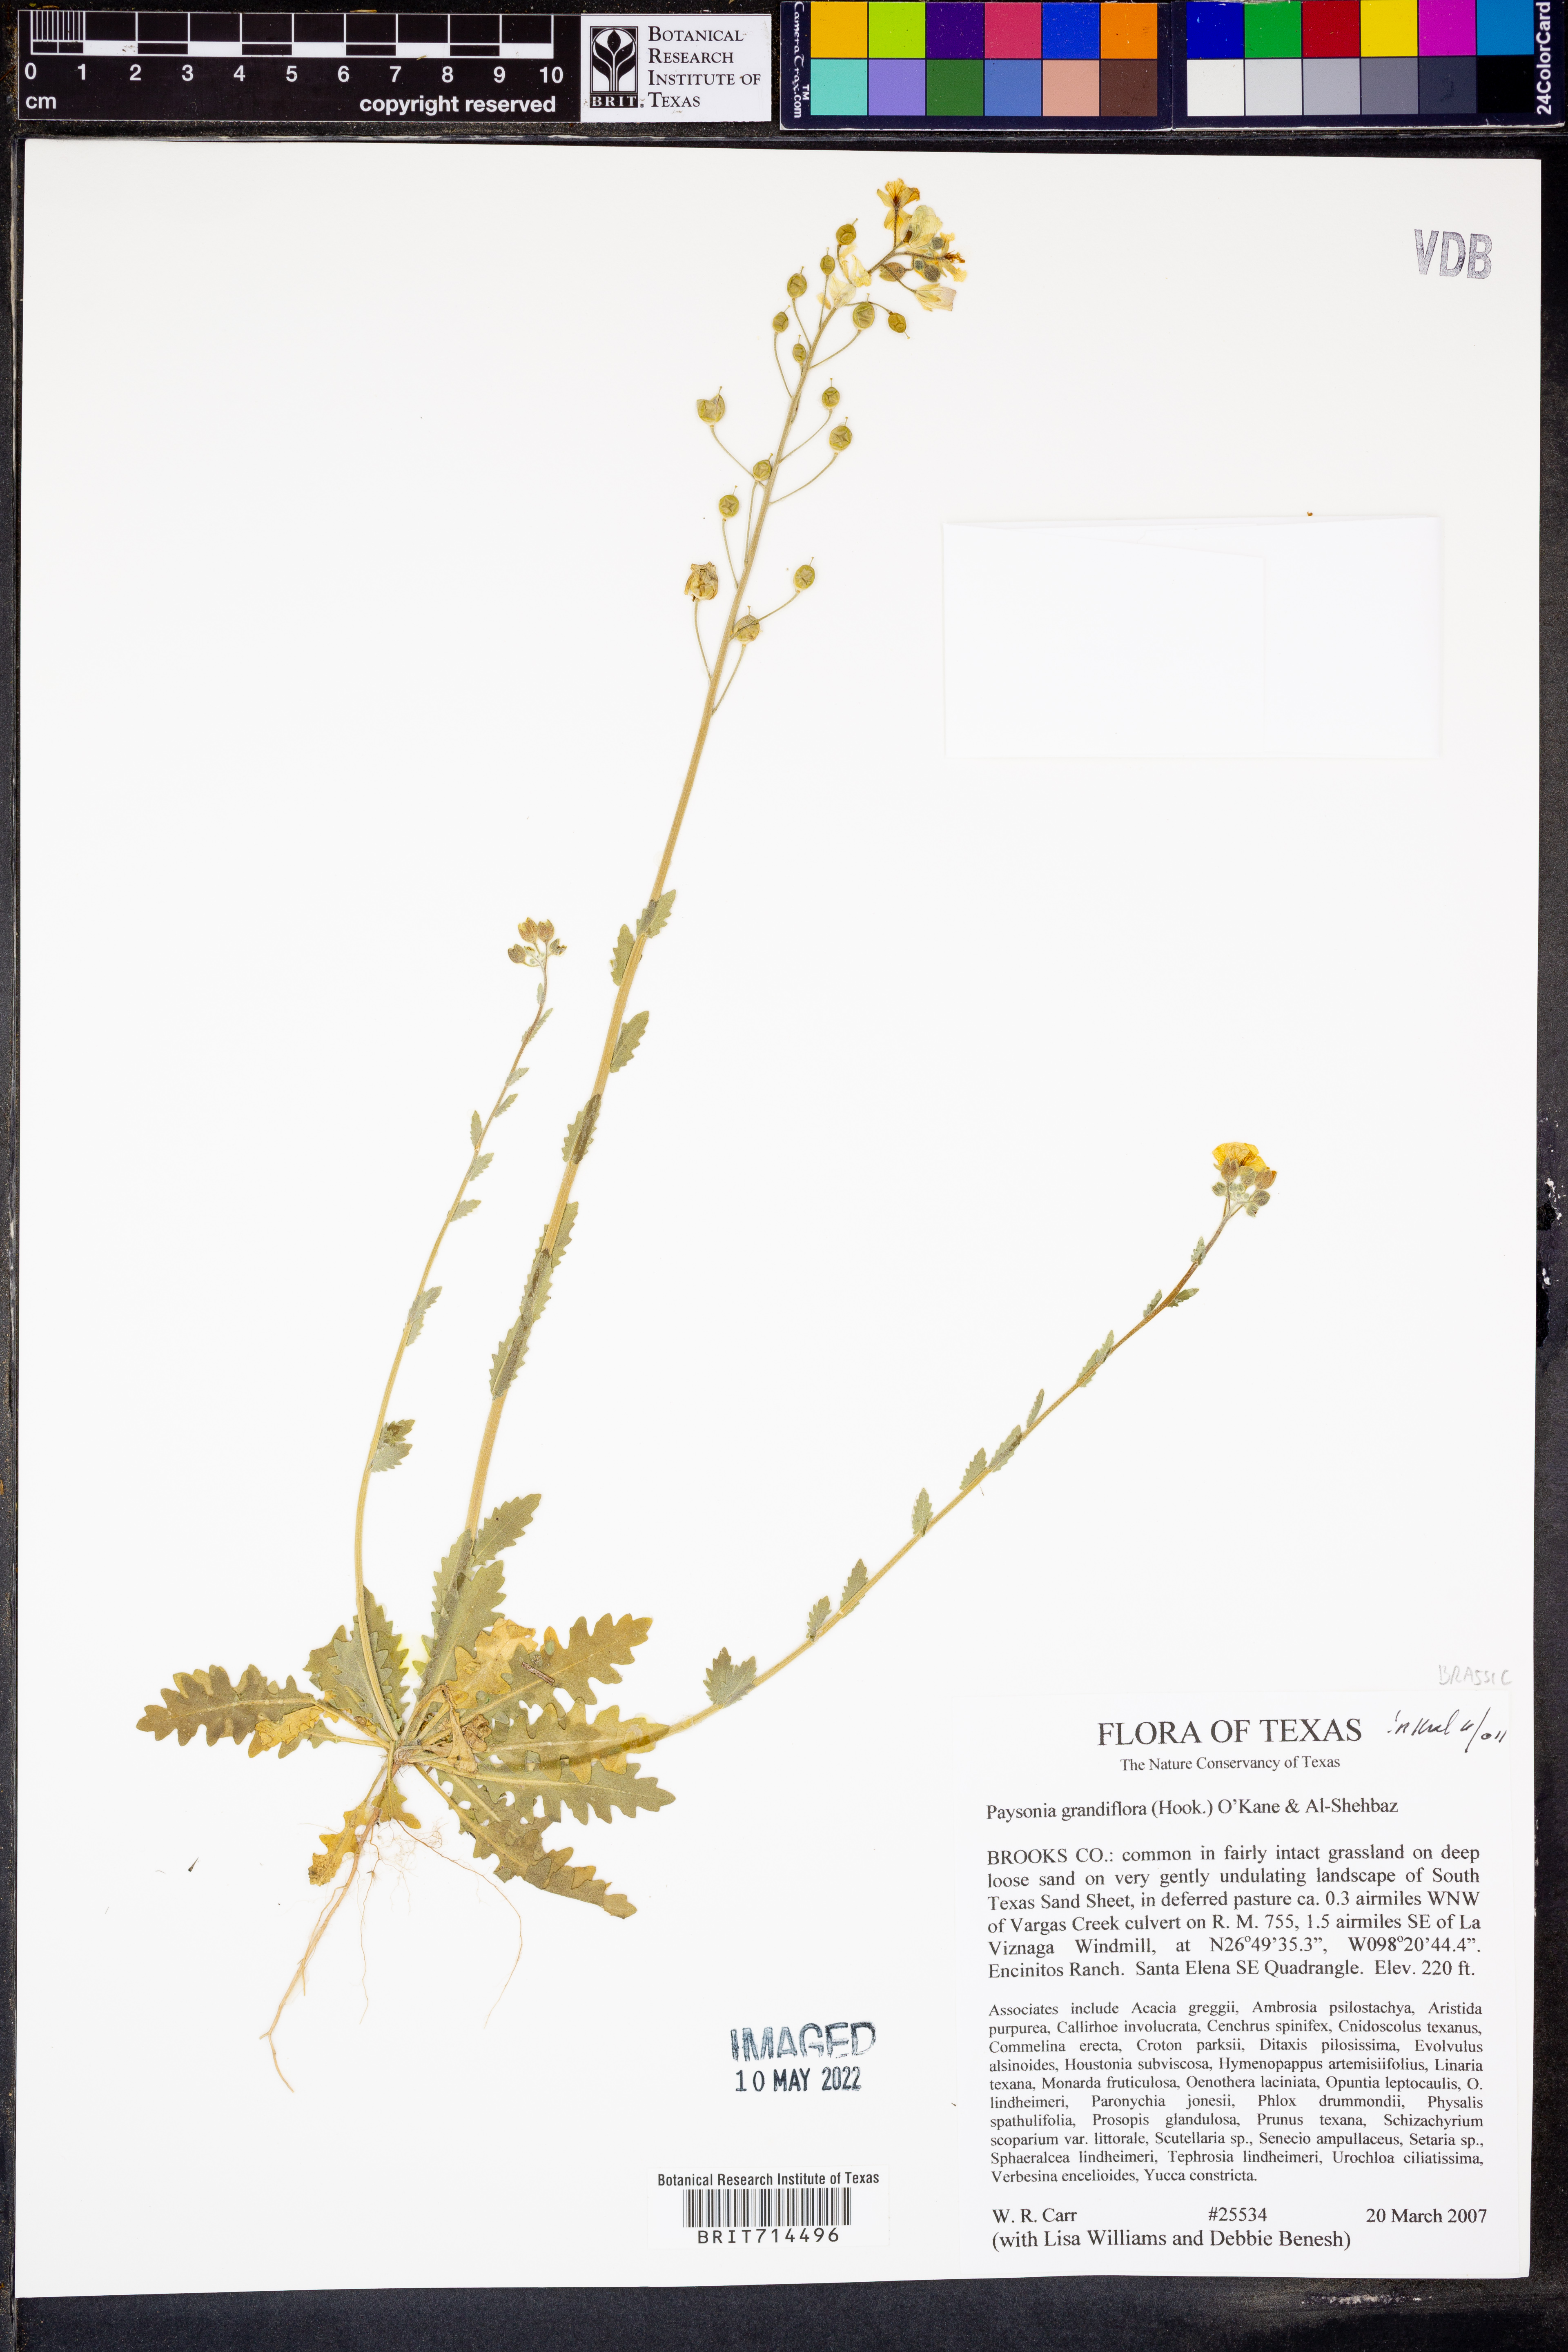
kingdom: Plantae
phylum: Tracheophyta
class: Magnoliopsida
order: Brassicales
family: Brassicaceae
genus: Paysonia
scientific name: Paysonia grandiflora
